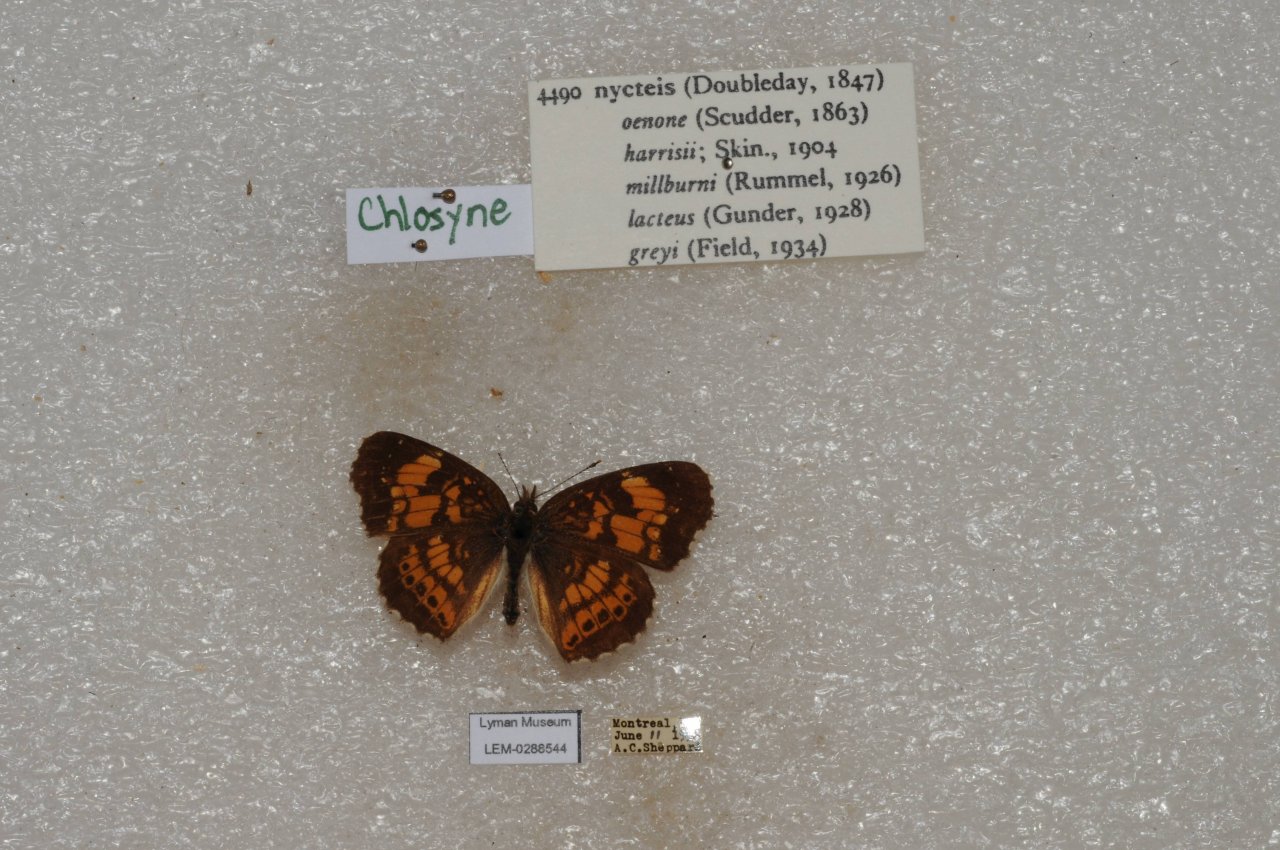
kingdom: Animalia
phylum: Arthropoda
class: Insecta
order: Lepidoptera
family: Nymphalidae
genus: Chlosyne
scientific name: Chlosyne nycteis
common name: Silvery Checkerspot
